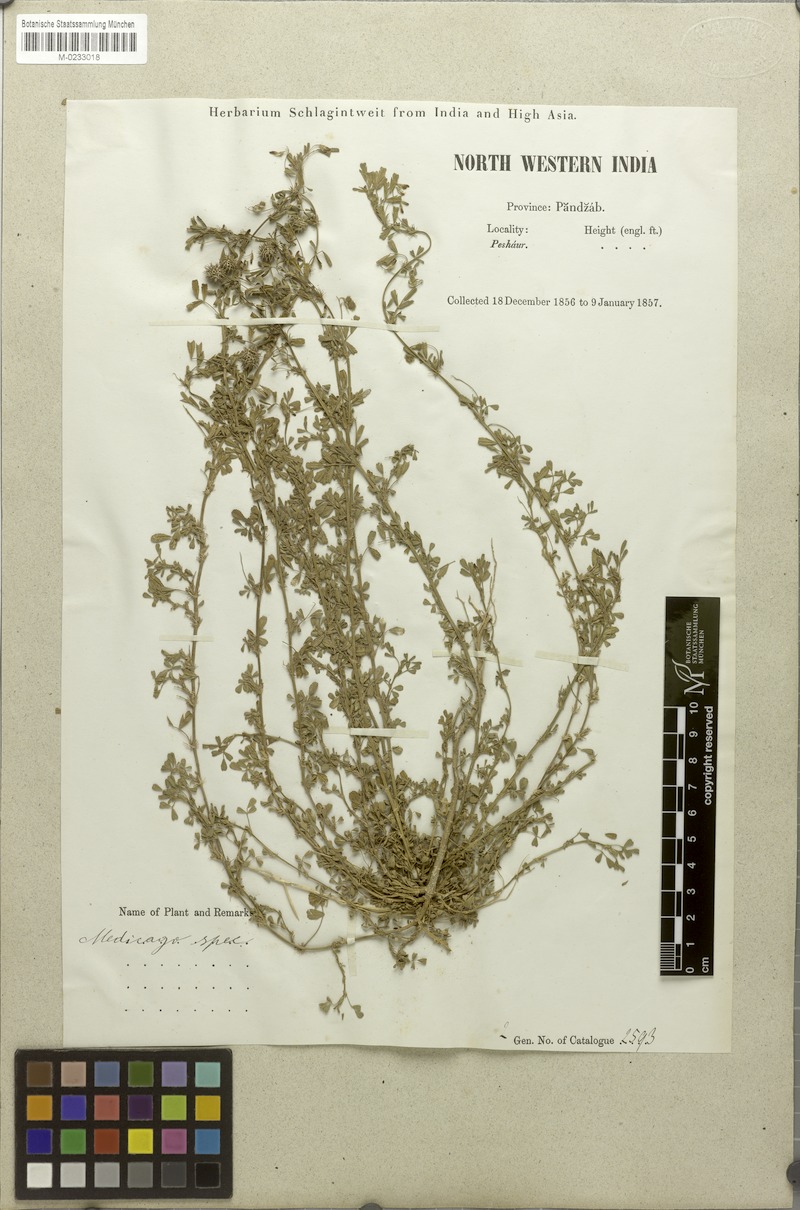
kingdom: Plantae
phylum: Tracheophyta
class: Magnoliopsida
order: Fabales
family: Fabaceae
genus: Medicago
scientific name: Medicago
